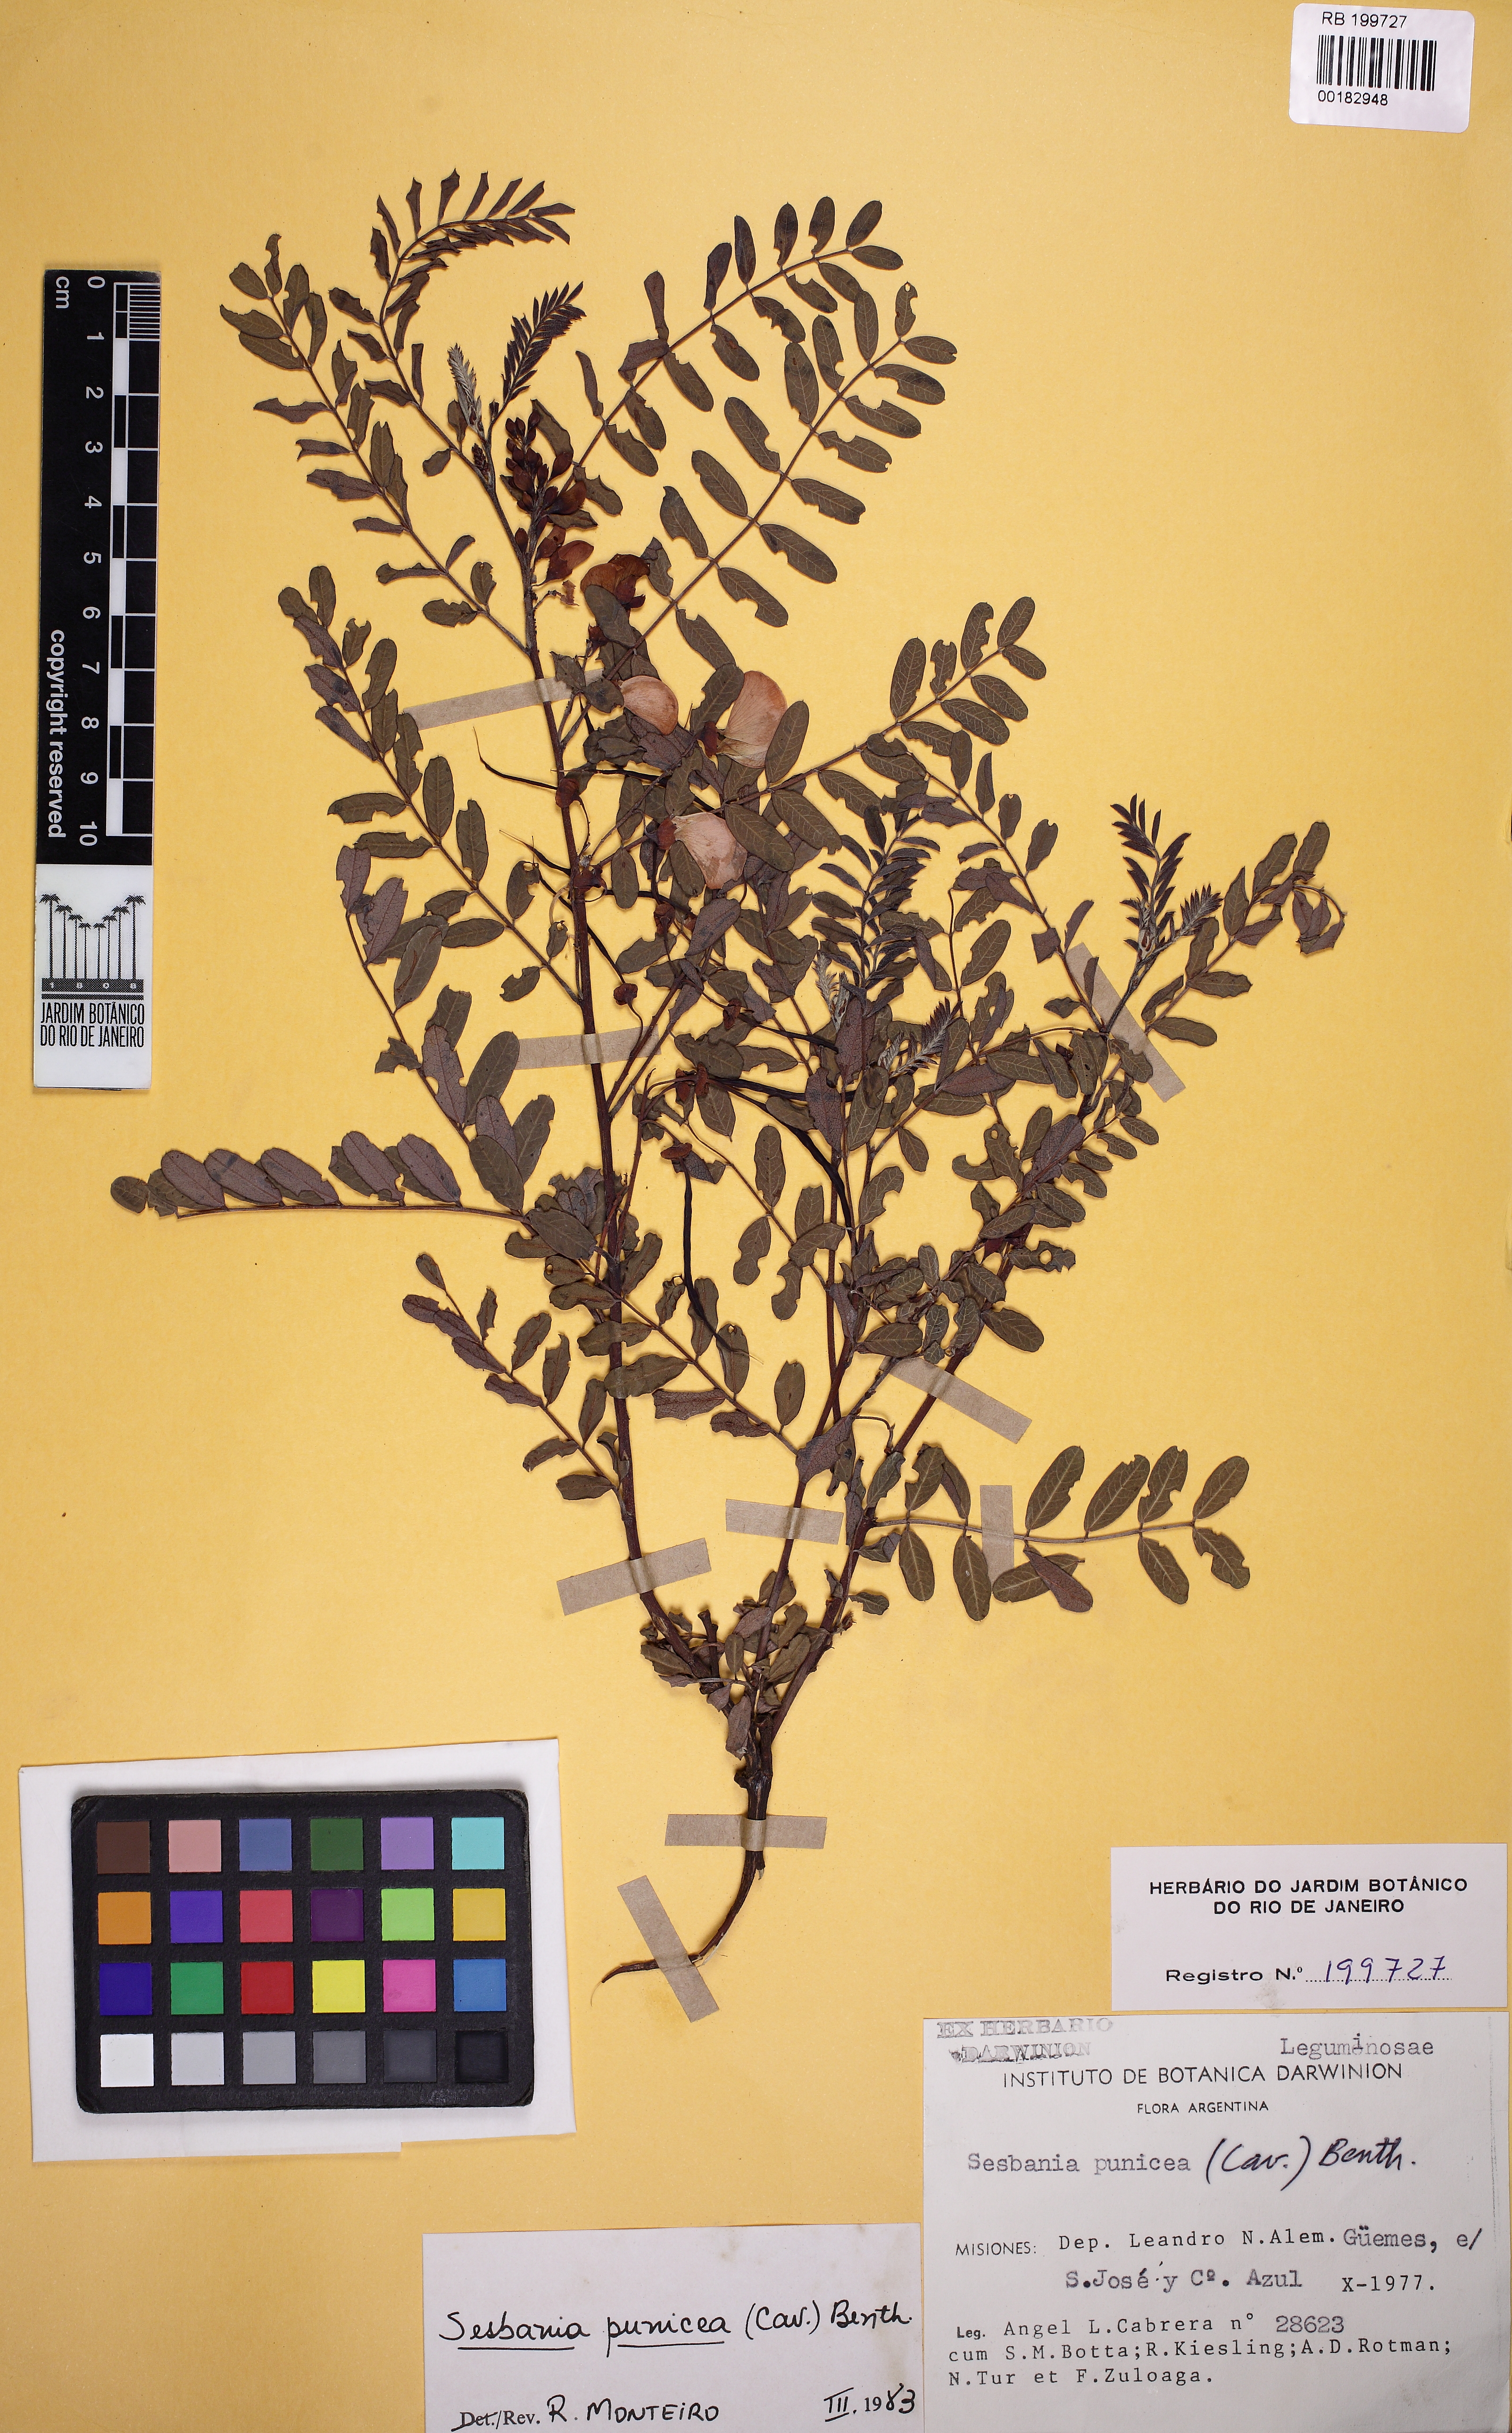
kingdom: Plantae
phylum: Tracheophyta
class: Magnoliopsida
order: Fabales
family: Fabaceae
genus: Sesbania
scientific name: Sesbania punicea
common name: Rattlebox
